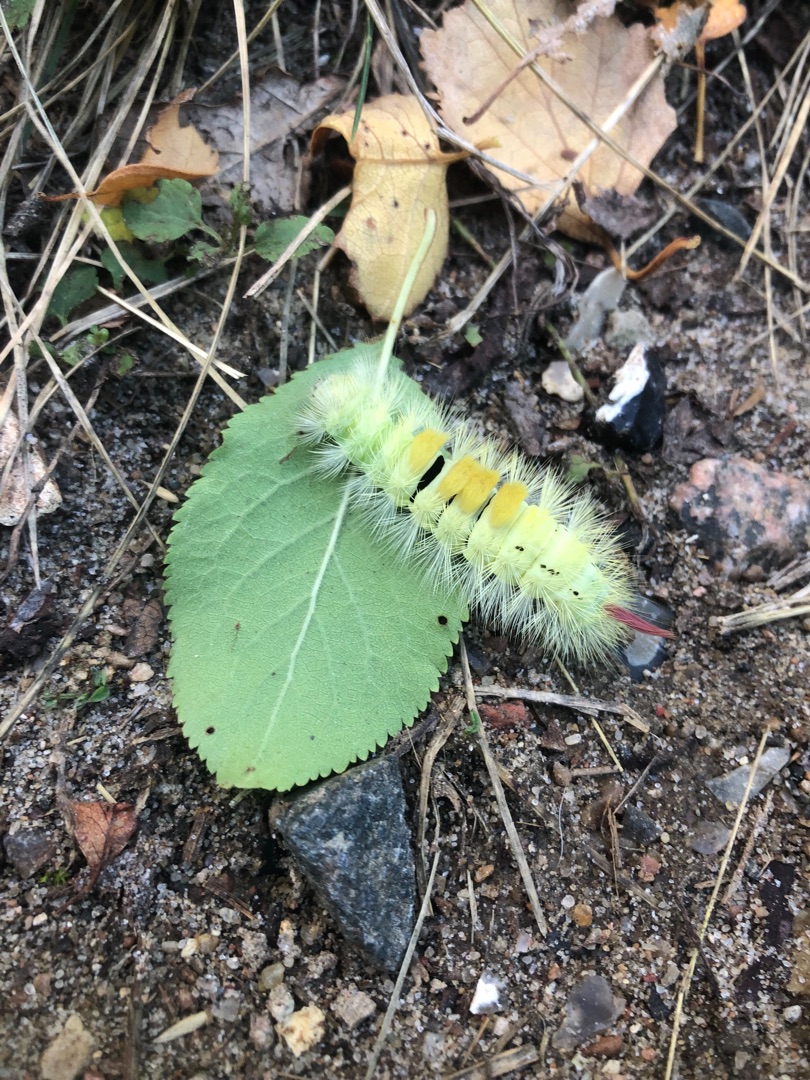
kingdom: Animalia
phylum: Arthropoda
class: Insecta
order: Lepidoptera
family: Erebidae
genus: Calliteara
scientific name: Calliteara pudibunda
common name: Bøgenonne
